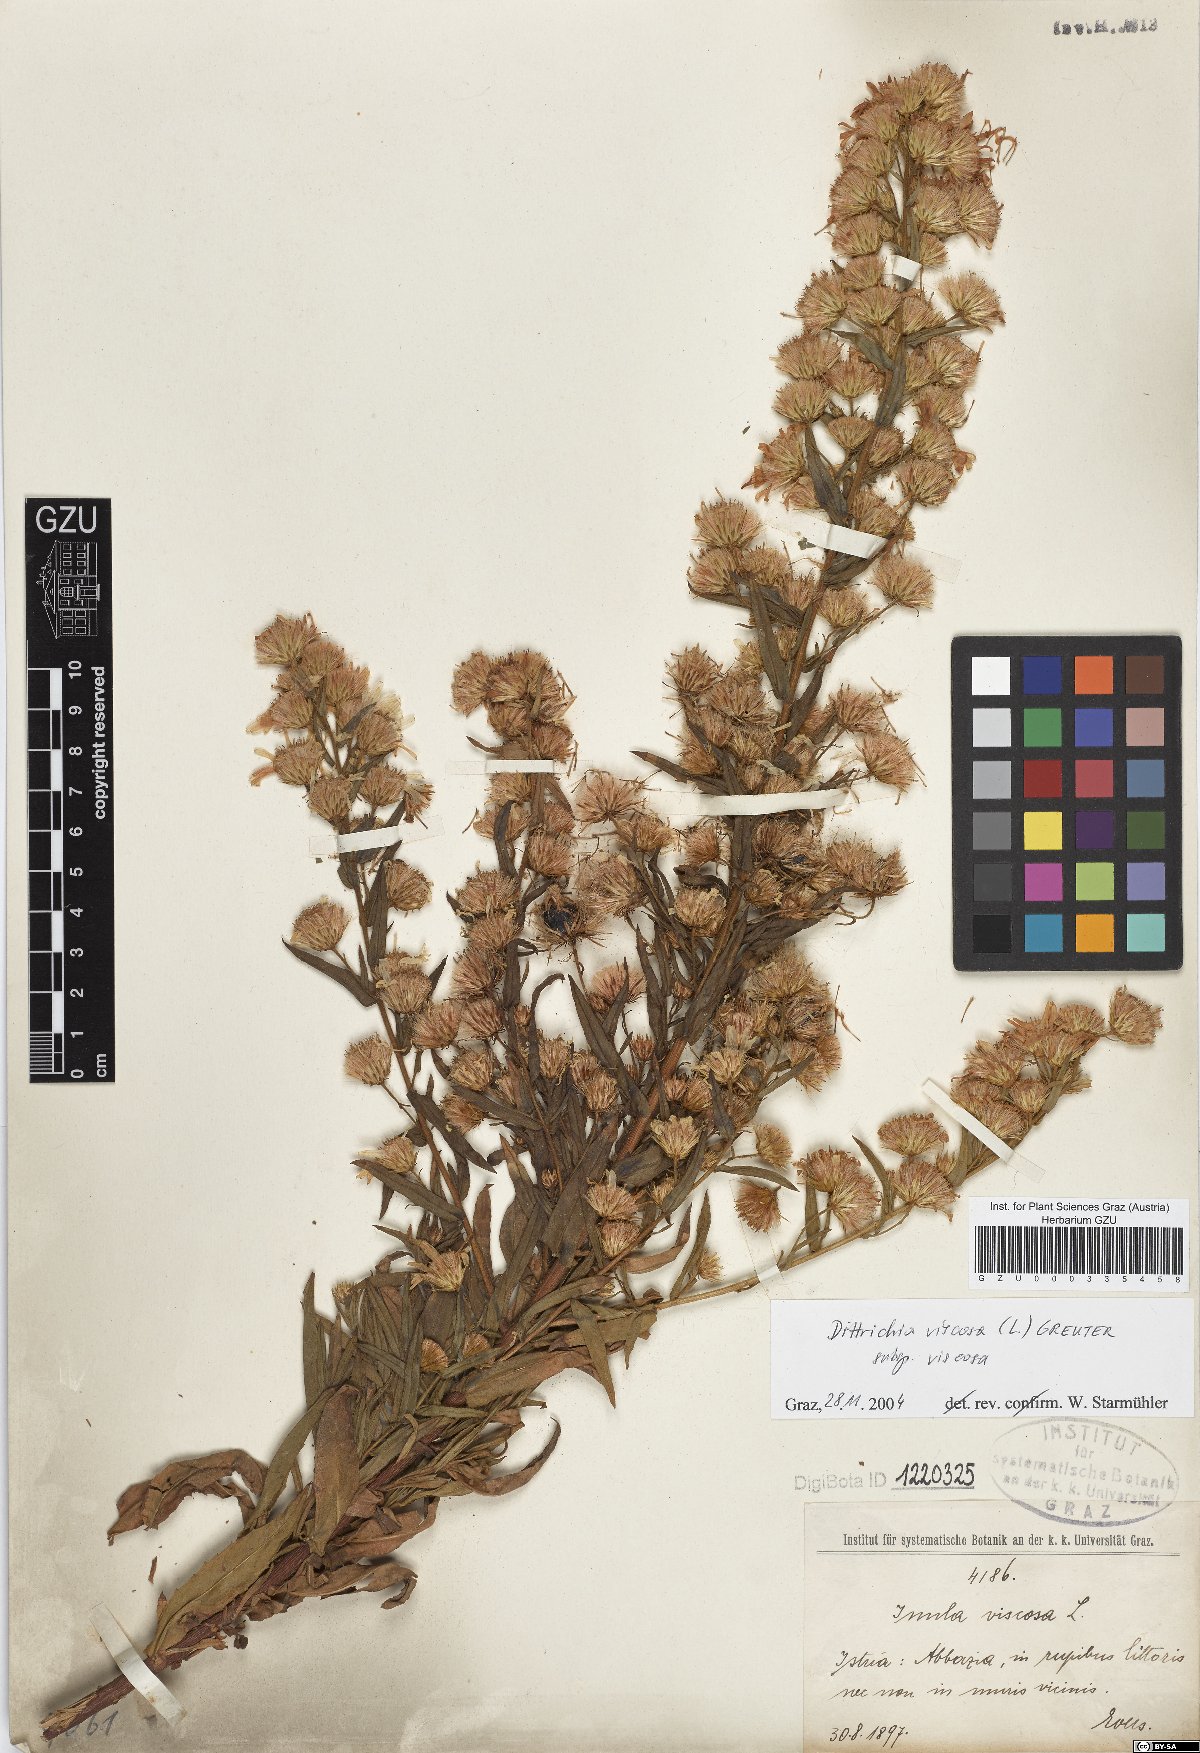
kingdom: Plantae
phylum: Tracheophyta
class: Magnoliopsida
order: Asterales
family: Asteraceae
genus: Dittrichia
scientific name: Dittrichia viscosa
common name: Woody fleabane
